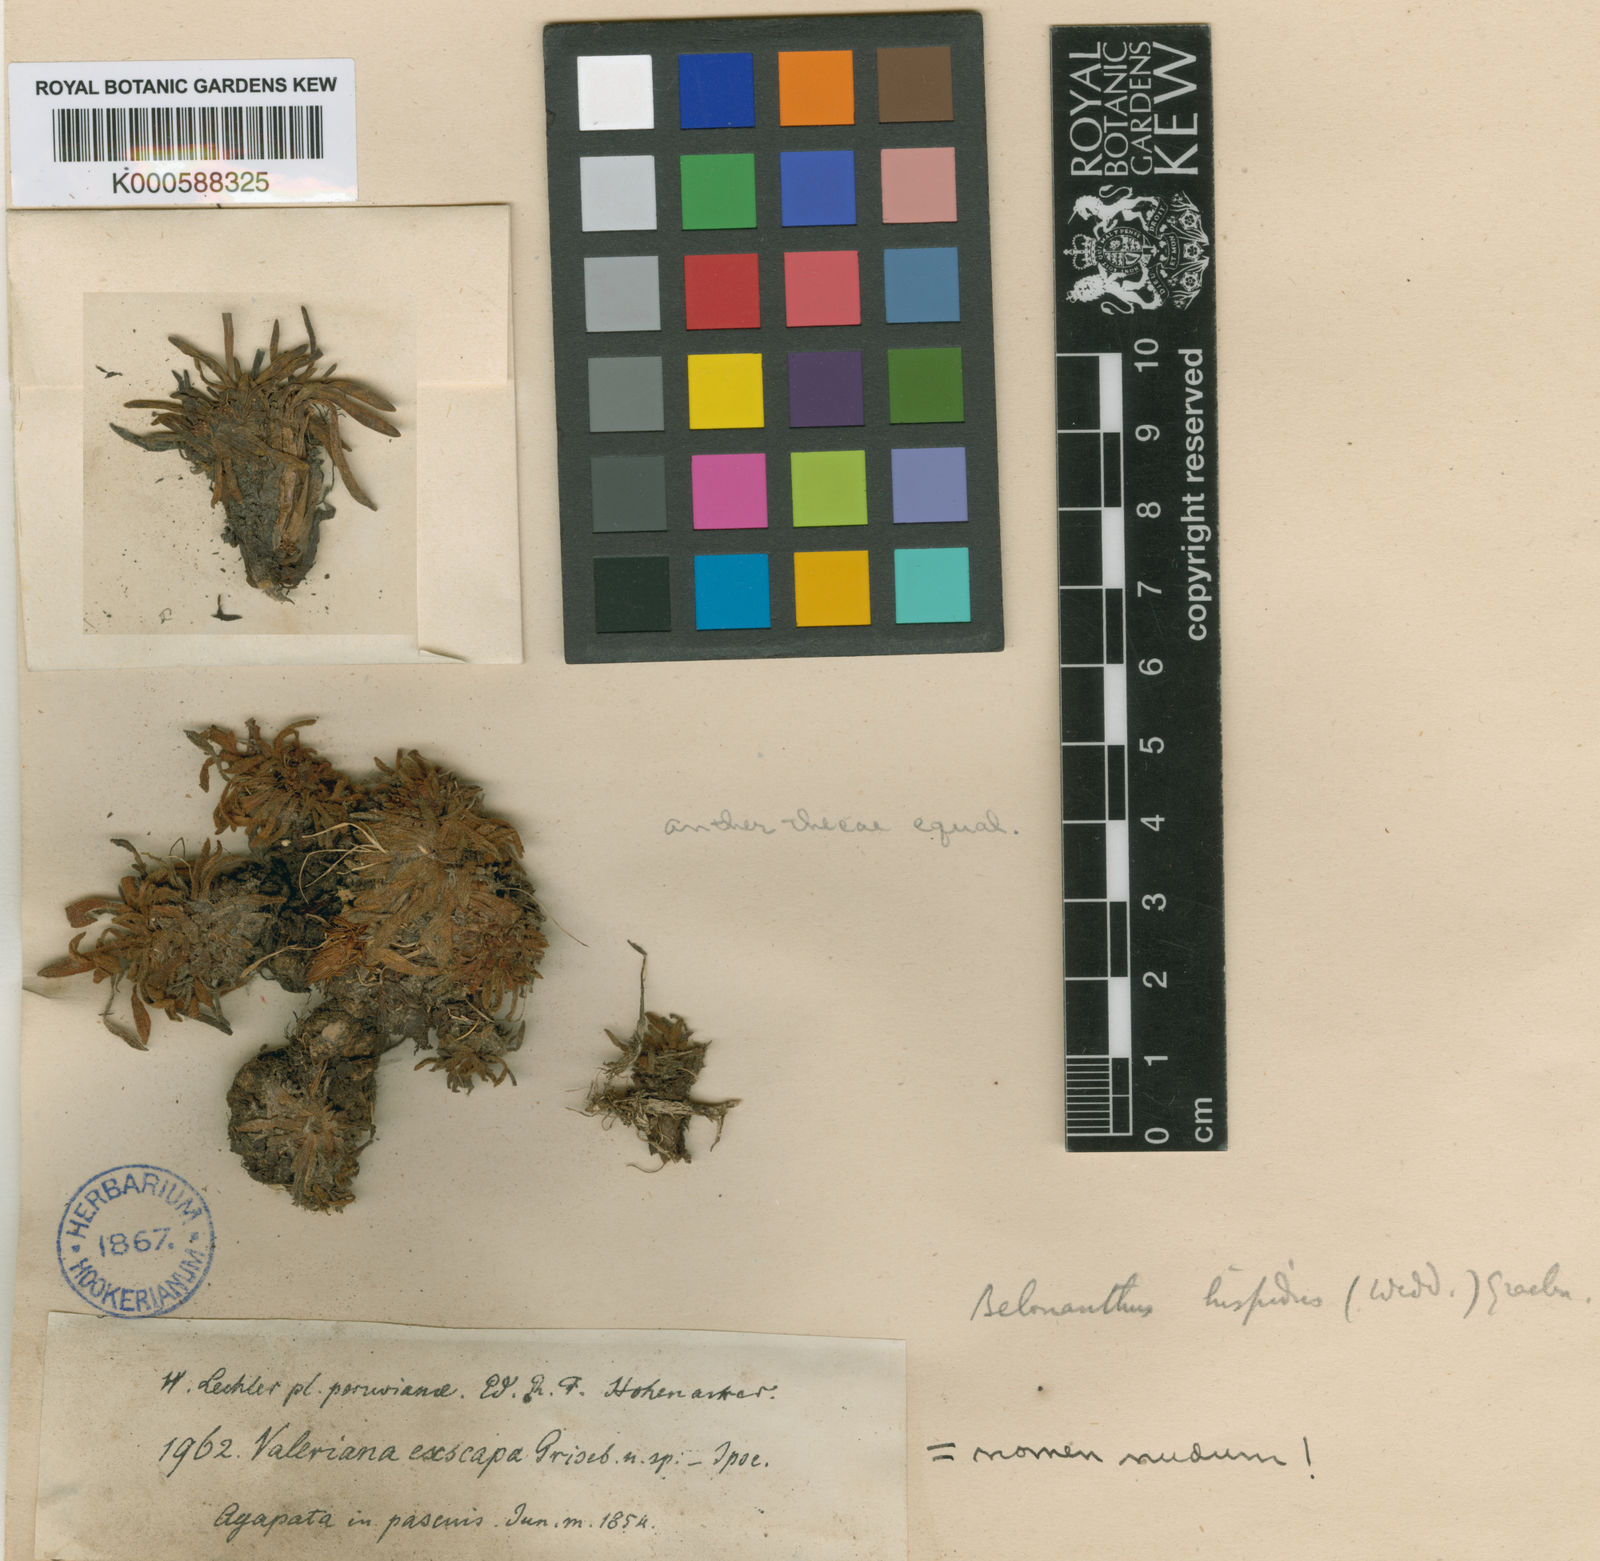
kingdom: Plantae
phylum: Tracheophyta
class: Magnoliopsida
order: Dipsacales
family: Caprifoliaceae
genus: Valeriana
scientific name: Valeriana niphobia
